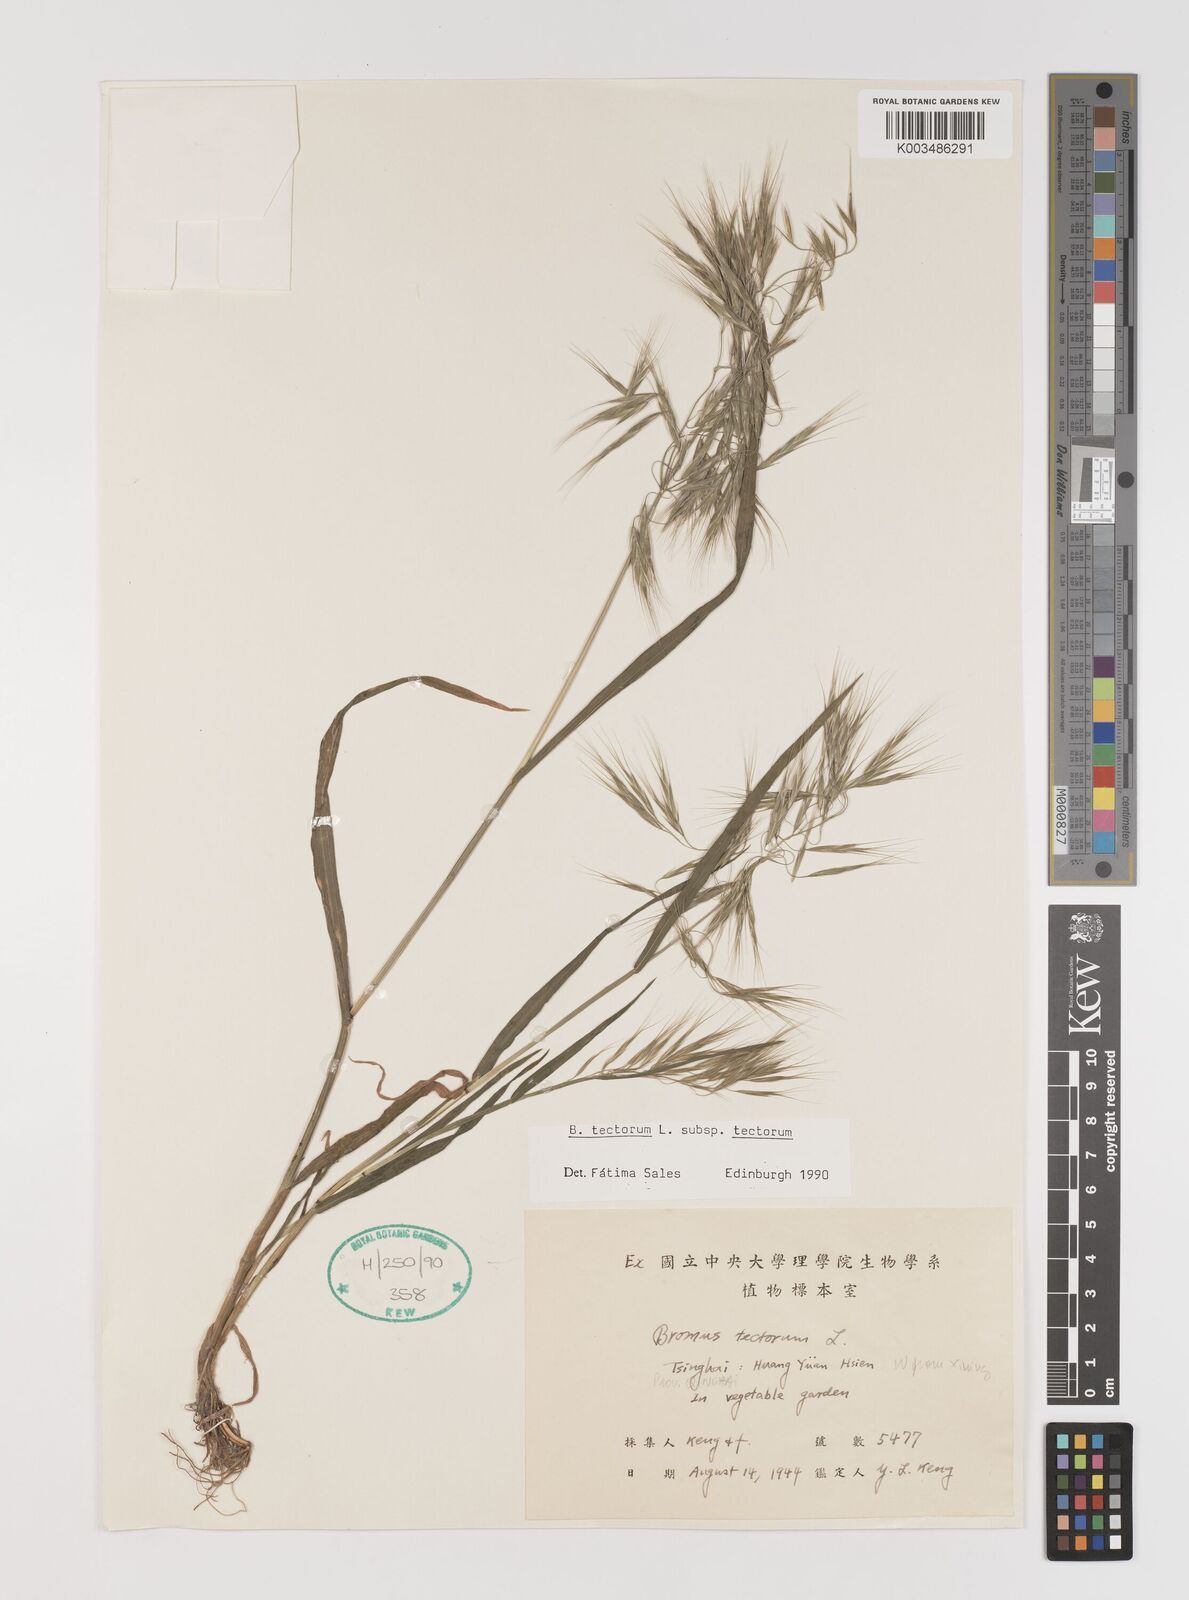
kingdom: Plantae
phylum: Tracheophyta
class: Liliopsida
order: Poales
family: Poaceae
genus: Bromus
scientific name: Bromus tectorum
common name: Cheatgrass
